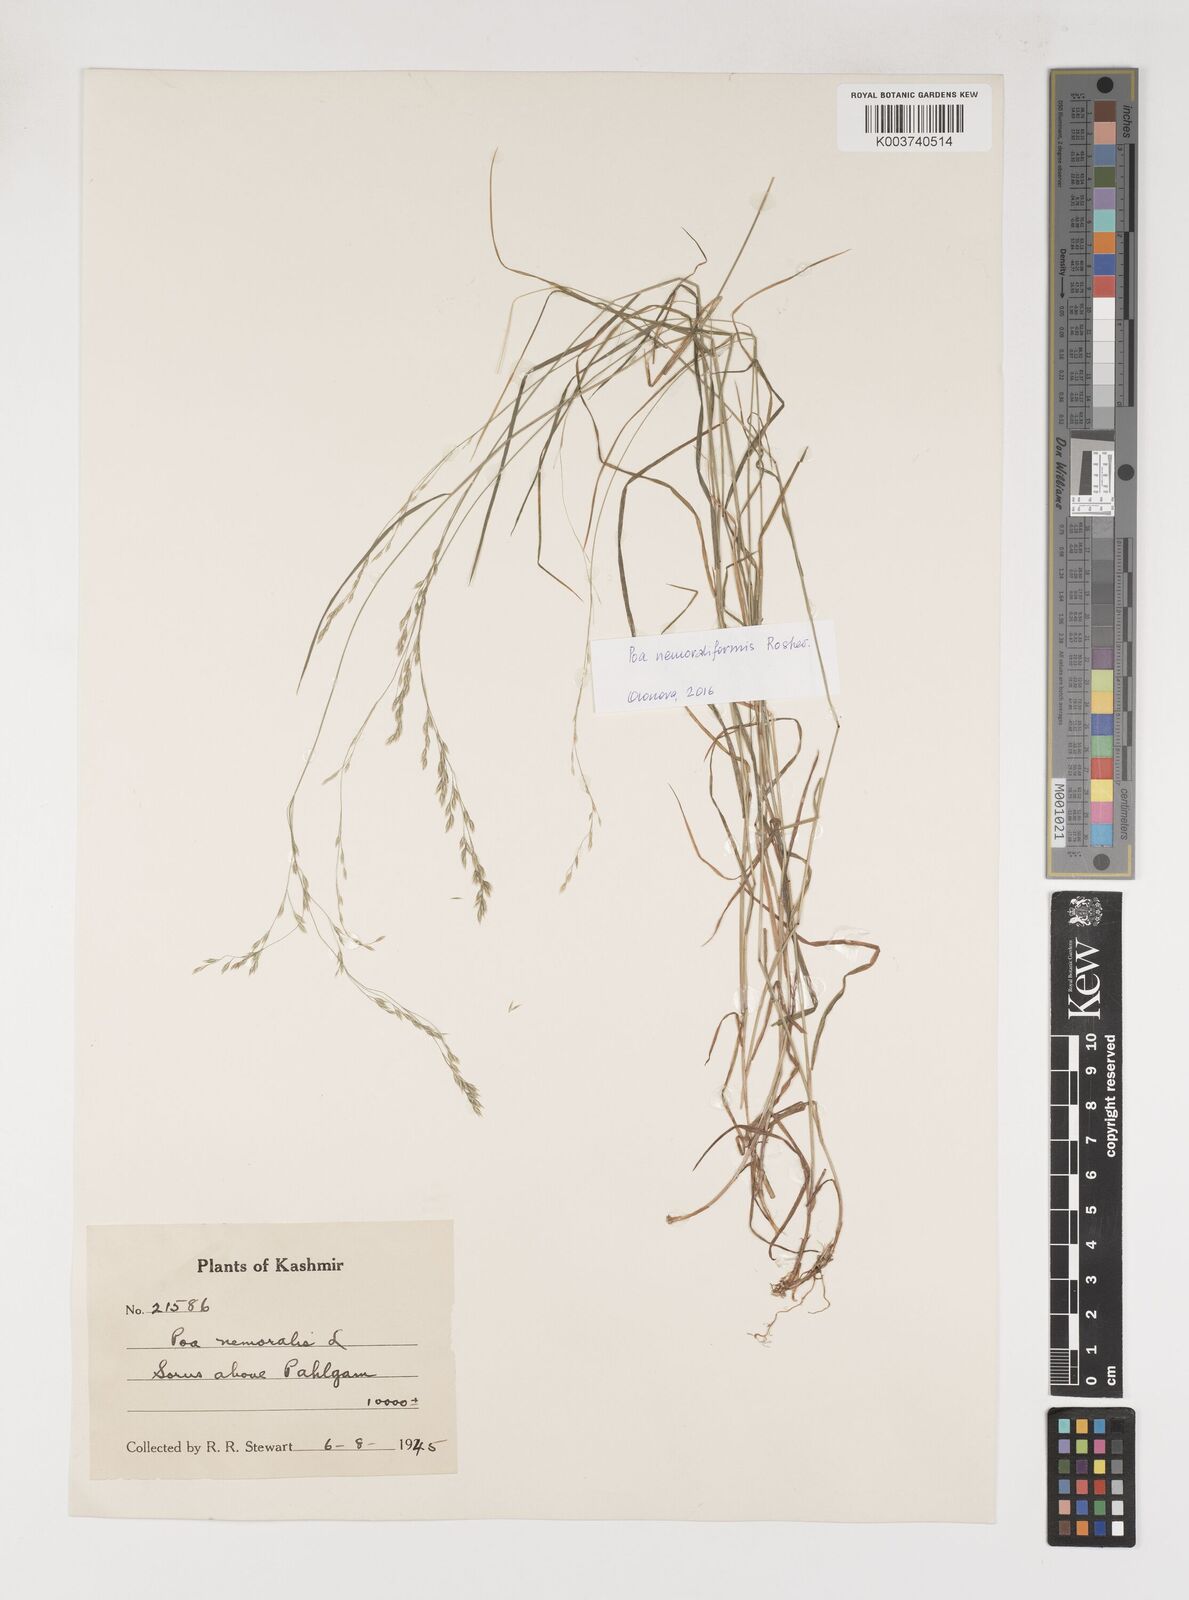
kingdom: Plantae
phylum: Tracheophyta
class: Liliopsida
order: Poales
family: Poaceae
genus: Poa
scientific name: Poa sterilis
